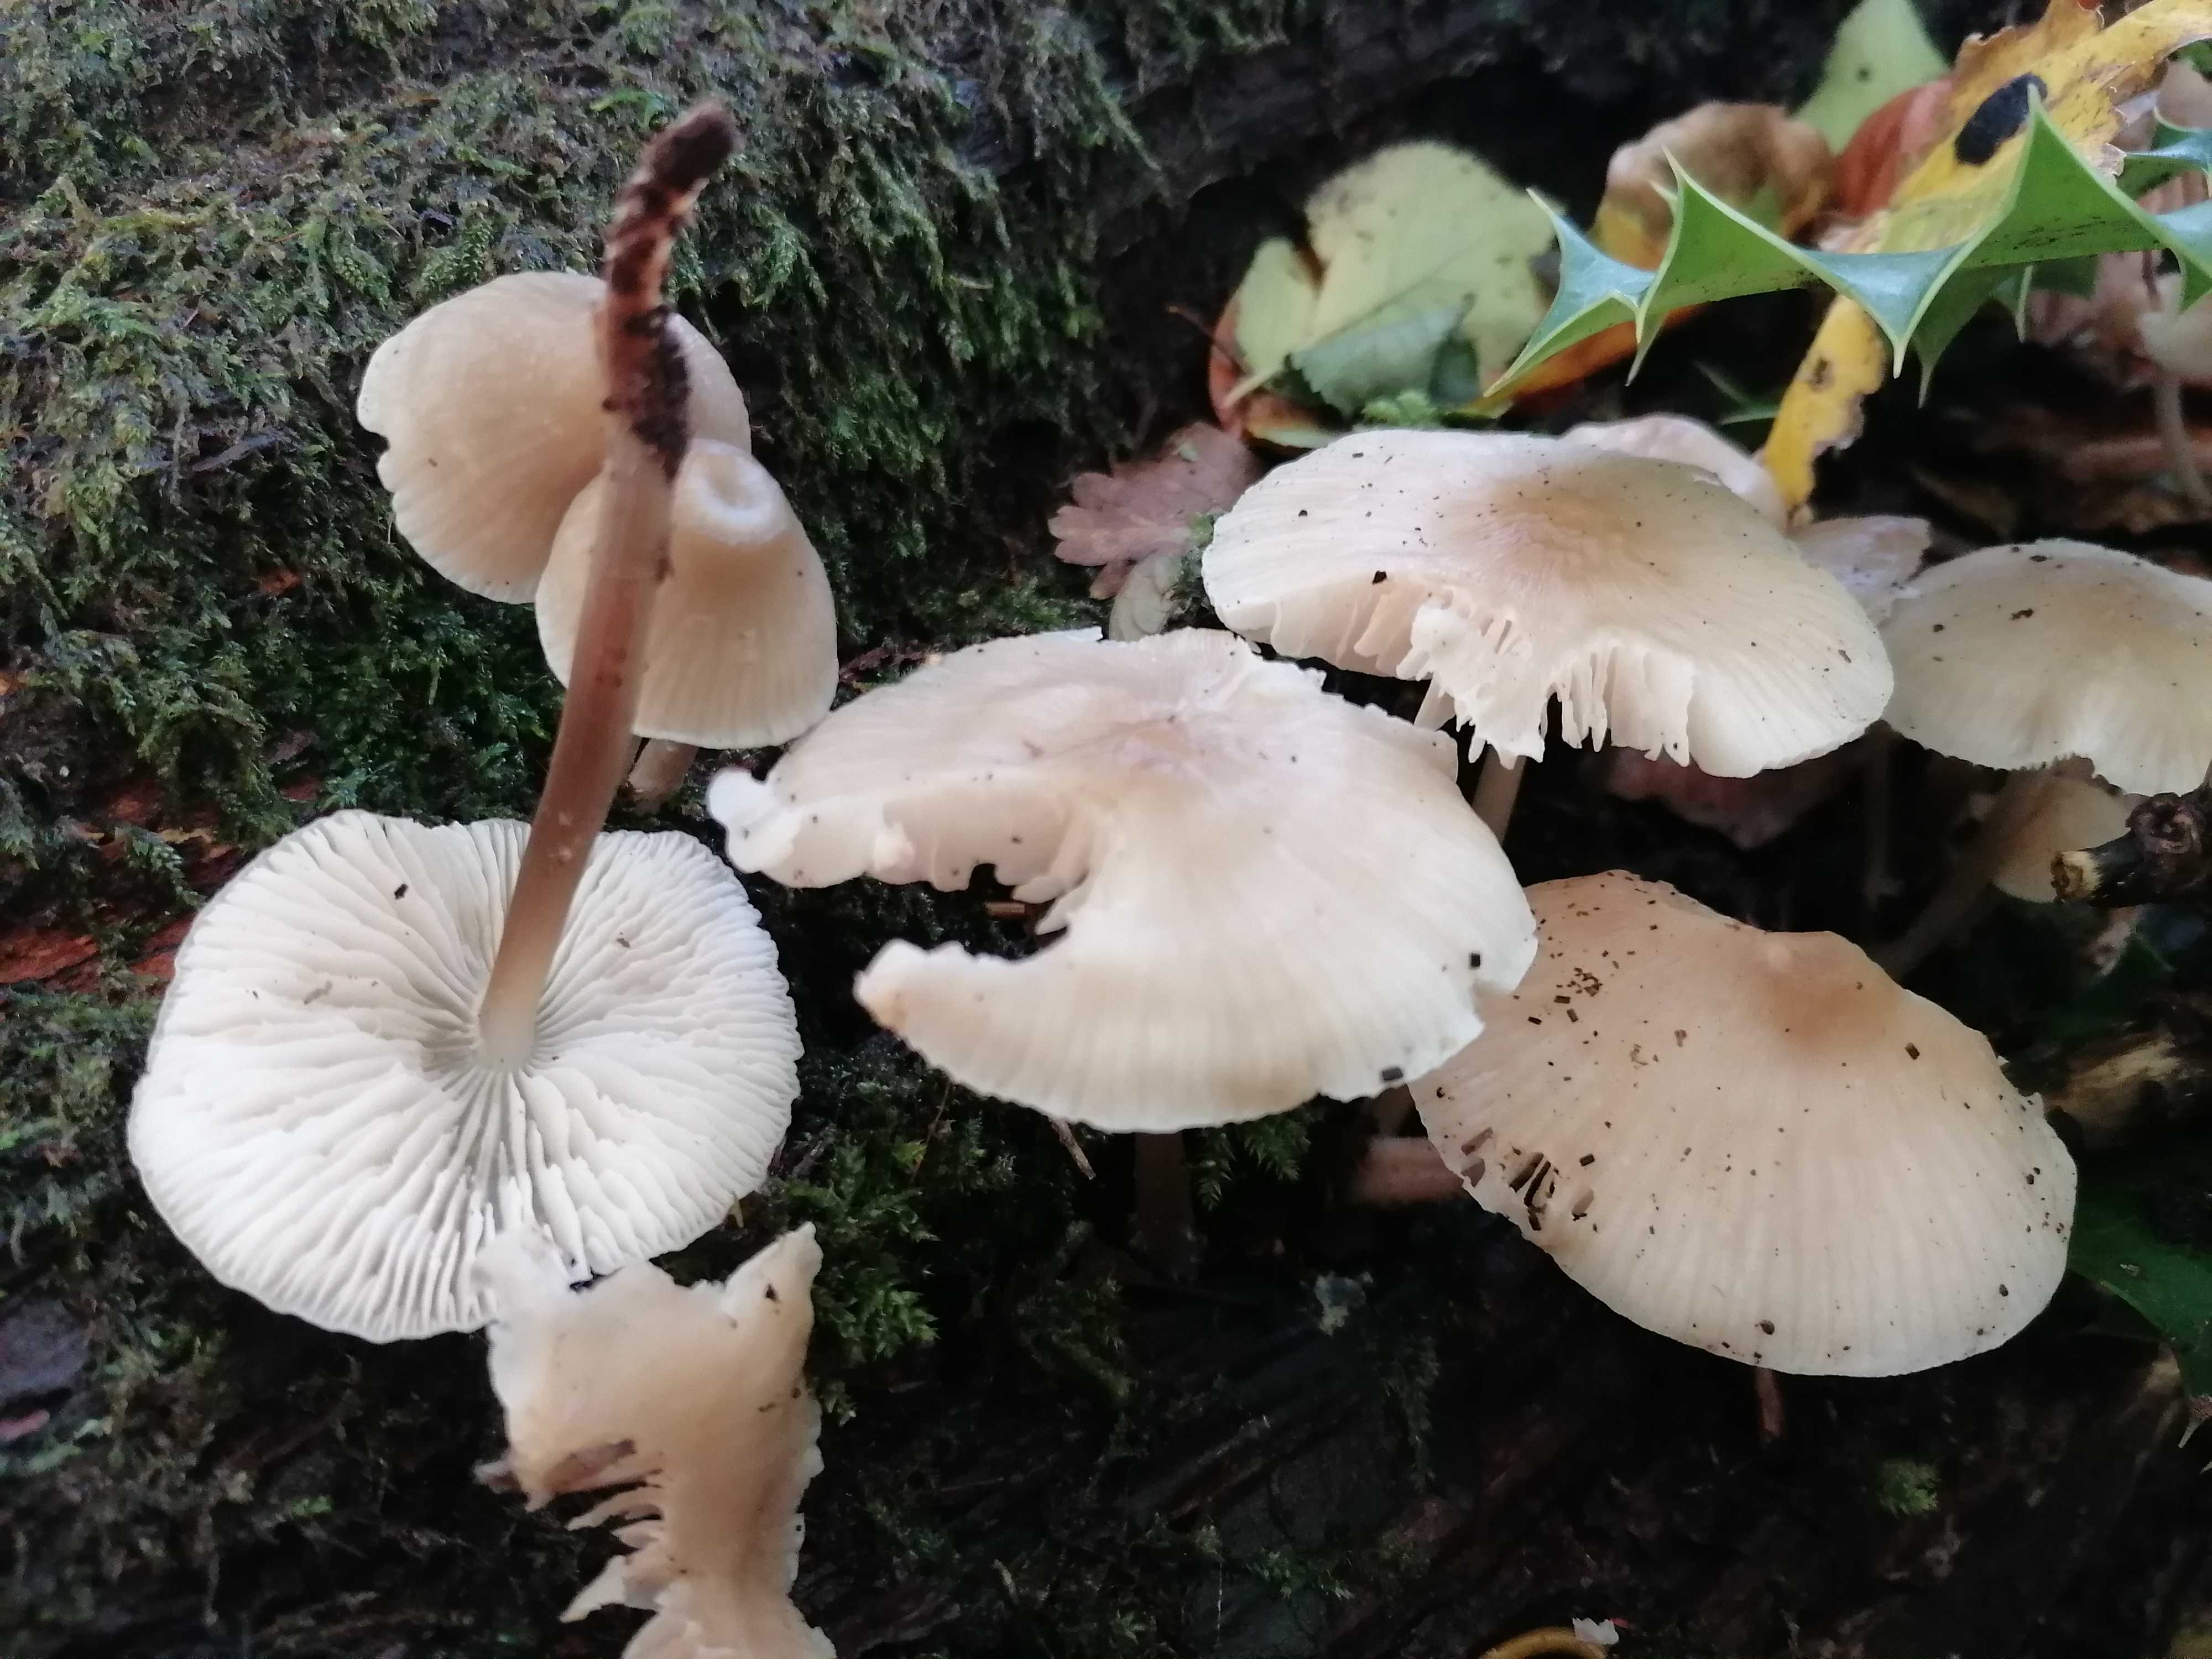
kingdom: Fungi
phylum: Basidiomycota
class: Agaricomycetes
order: Agaricales
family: Mycenaceae
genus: Mycena
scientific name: Mycena galericulata
